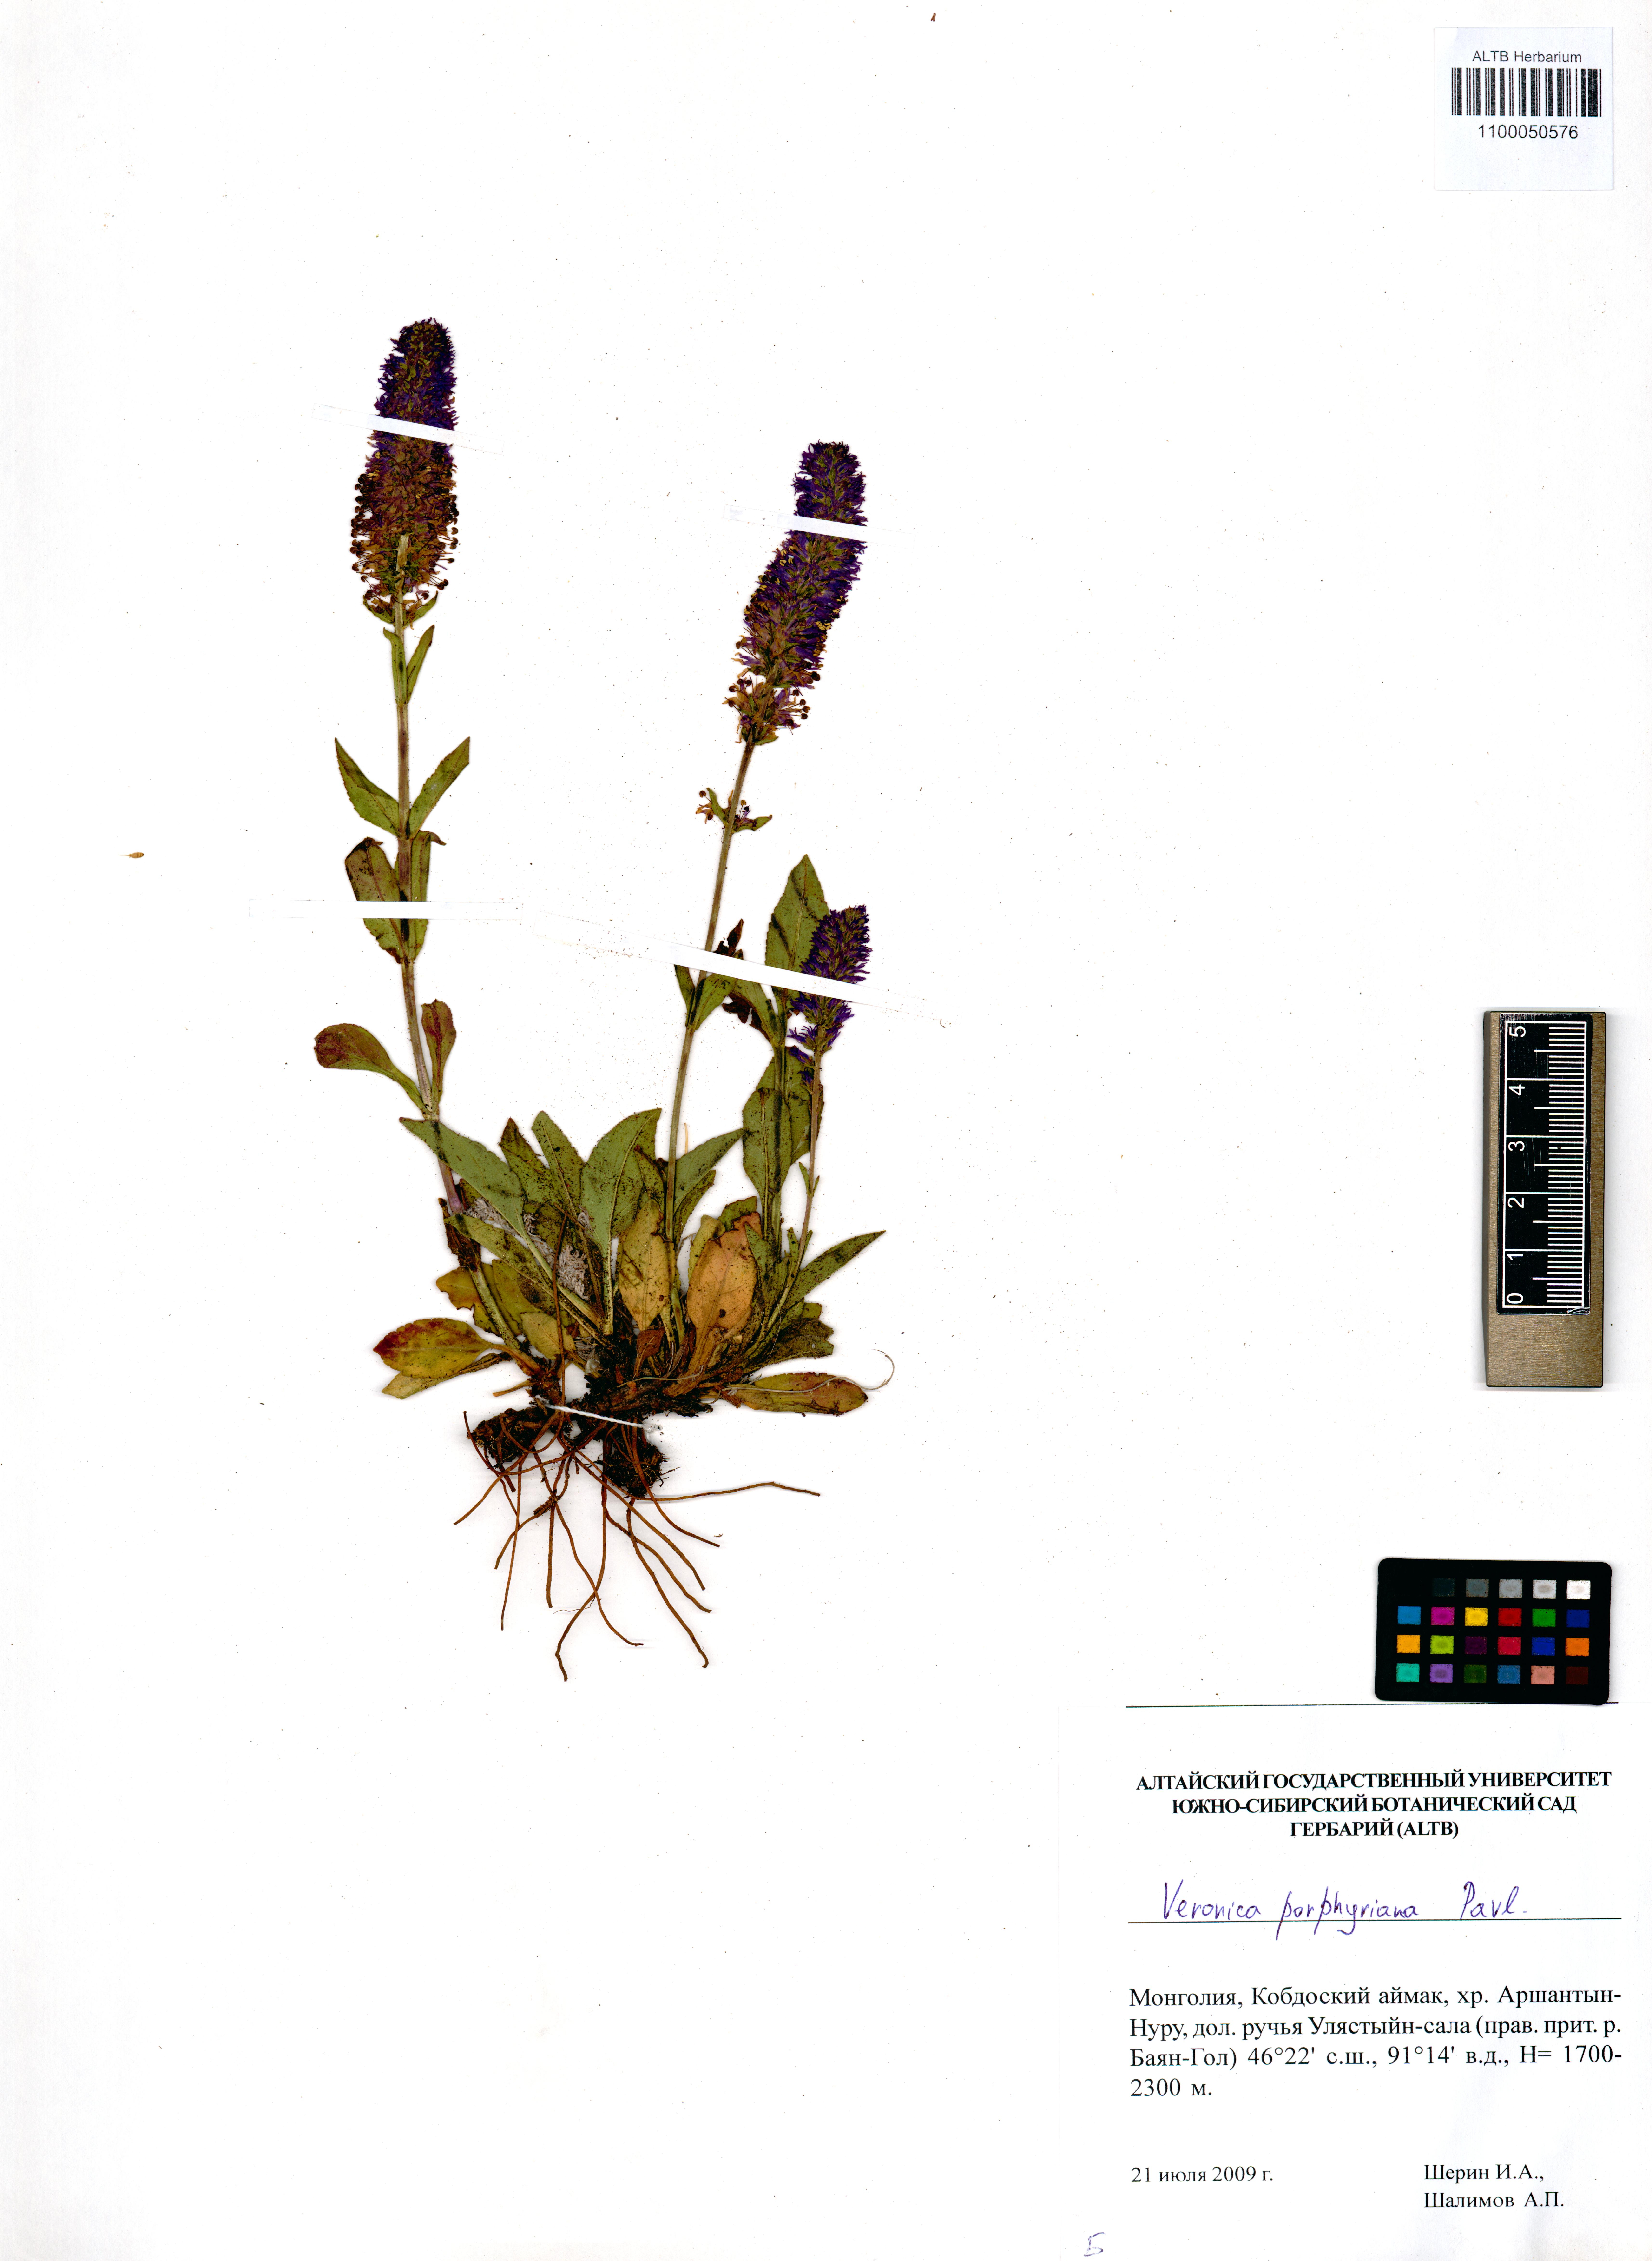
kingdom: Plantae
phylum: Tracheophyta
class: Magnoliopsida
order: Lamiales
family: Plantaginaceae
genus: Veronica
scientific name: Veronica porphyriana
